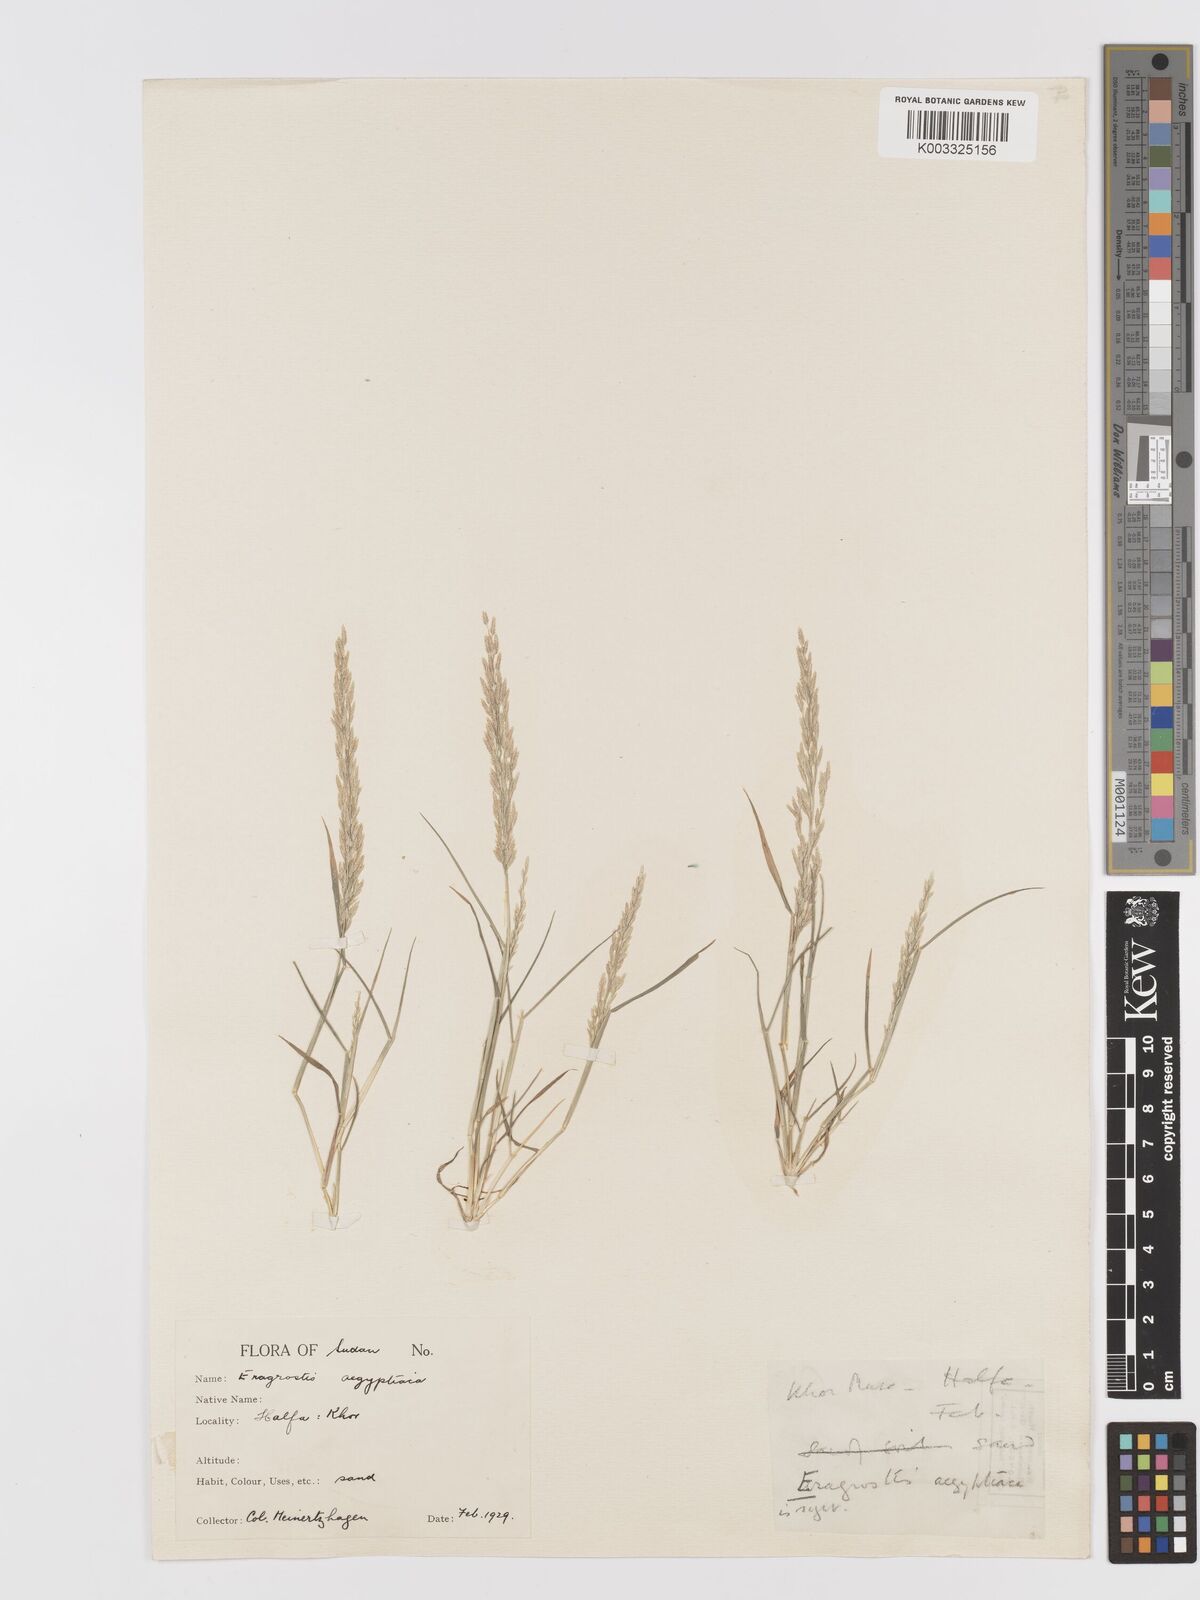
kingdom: Plantae
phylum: Tracheophyta
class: Liliopsida
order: Poales
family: Poaceae
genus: Eragrostis
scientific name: Eragrostis aegyptiaca
